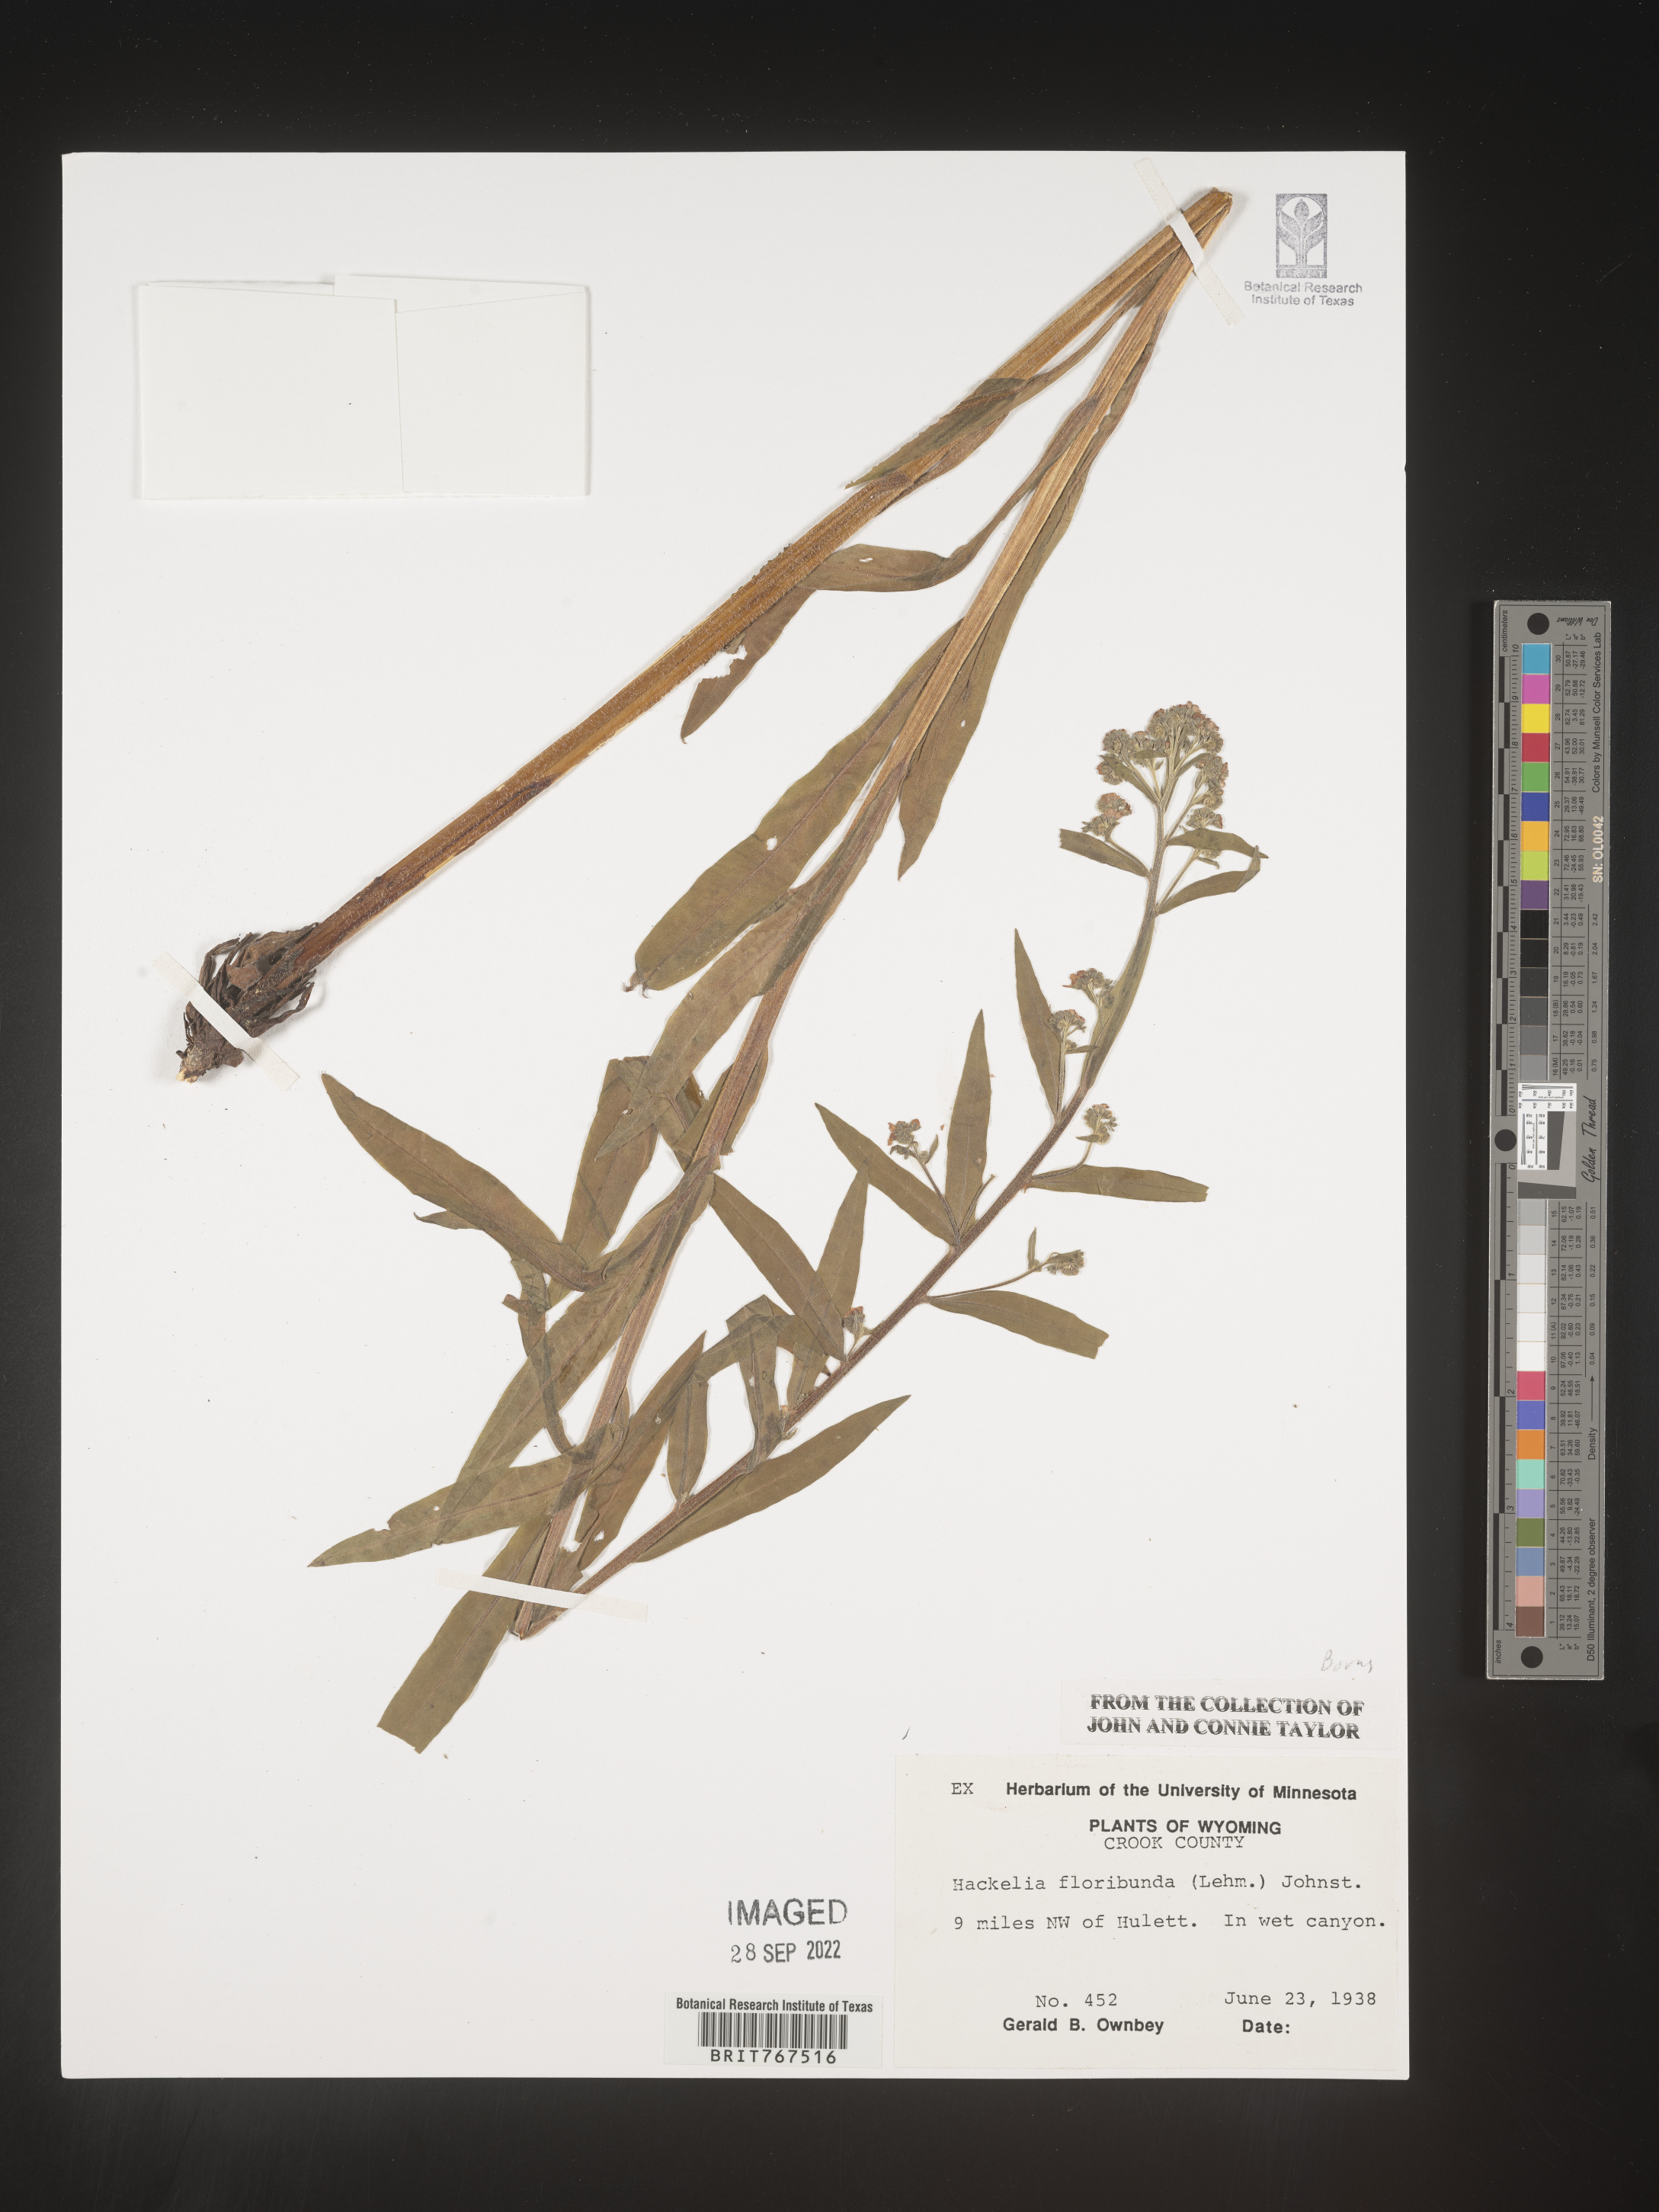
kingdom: Plantae
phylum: Tracheophyta
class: Magnoliopsida
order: Boraginales
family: Boraginaceae
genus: Hackelia
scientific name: Hackelia floribunda
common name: Large-flowered stickseed
